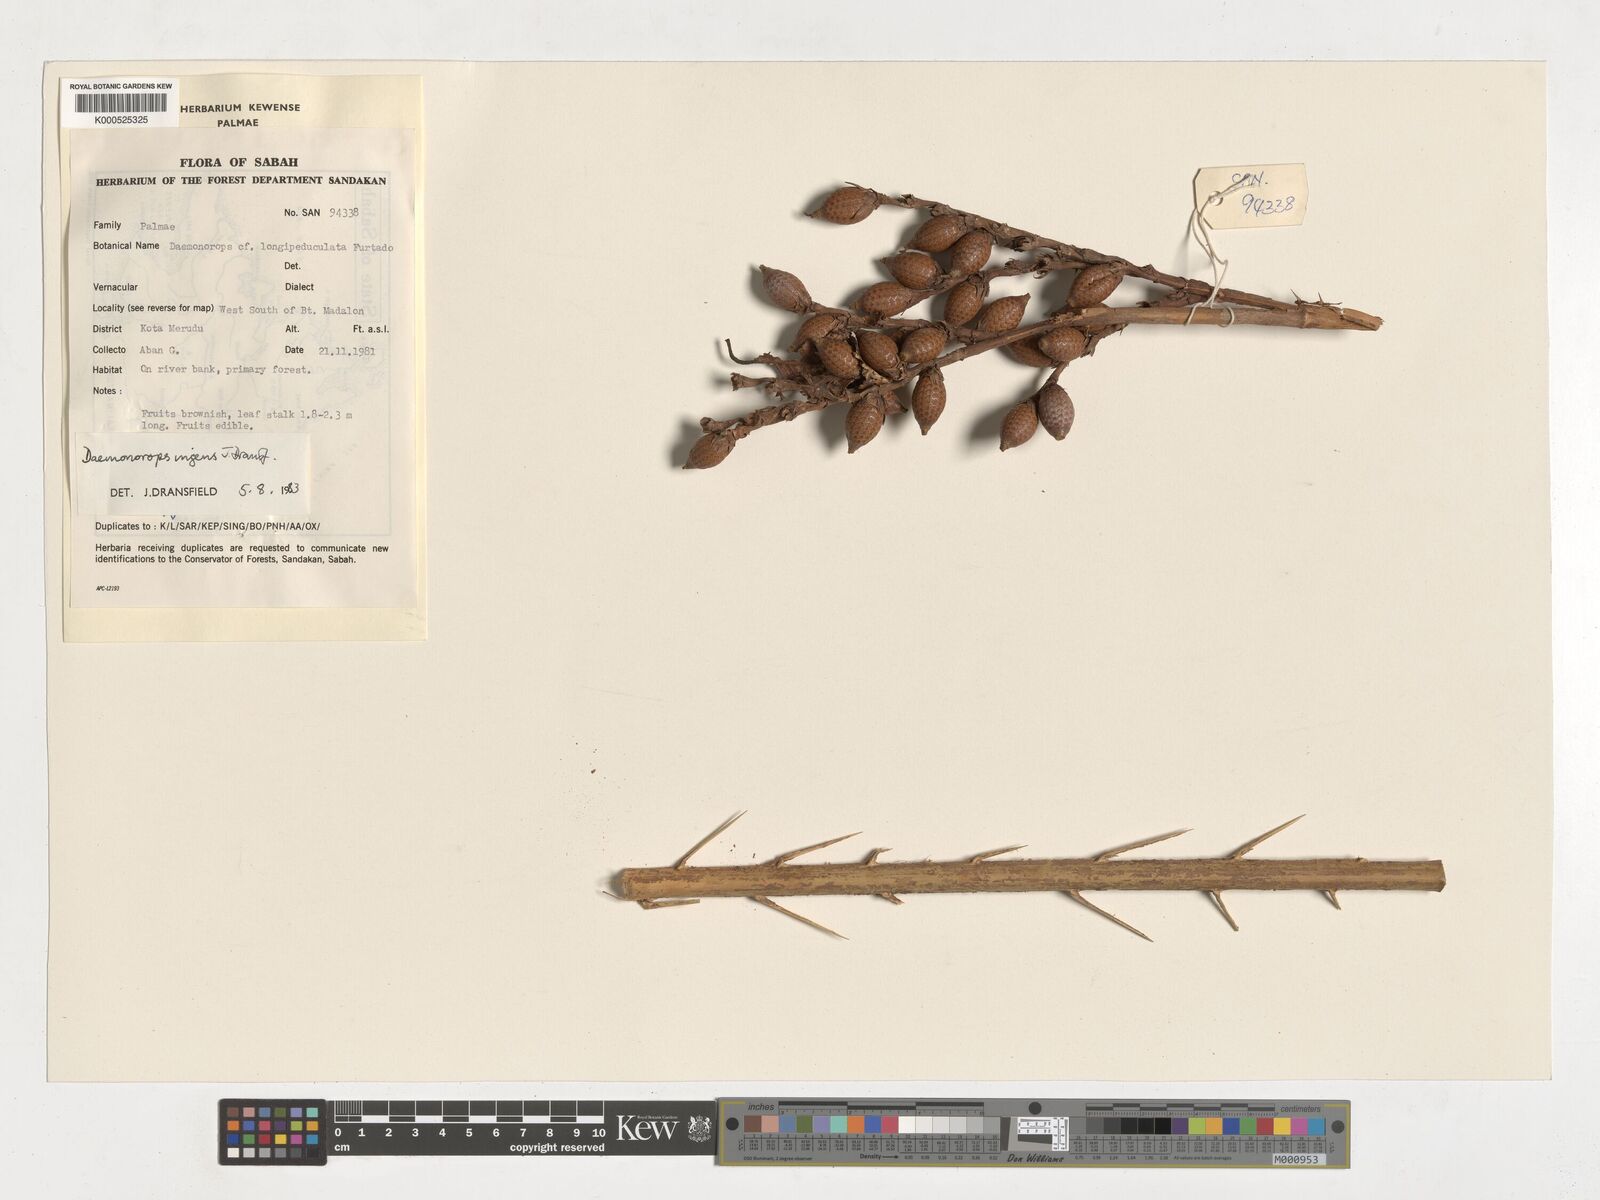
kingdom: Plantae
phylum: Tracheophyta
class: Liliopsida
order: Arecales
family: Arecaceae
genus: Calamus
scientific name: Calamus ingens
